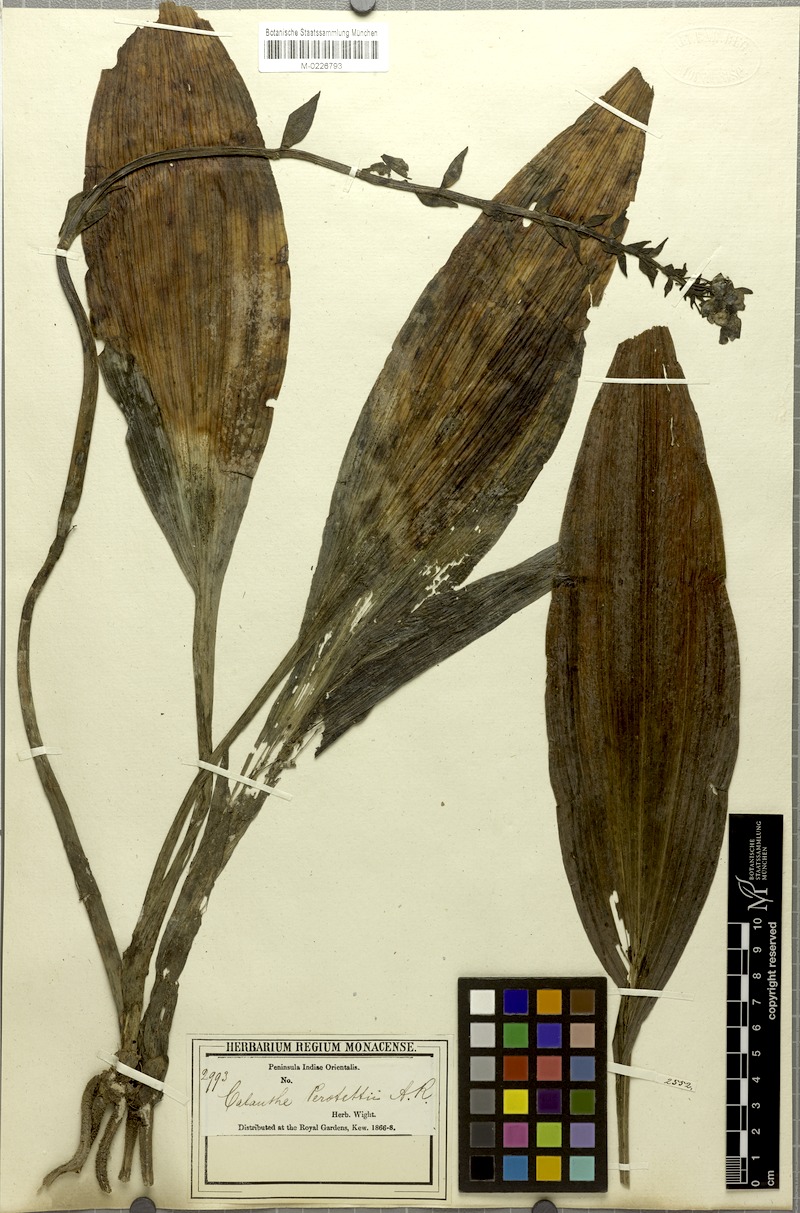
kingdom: Plantae
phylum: Tracheophyta
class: Liliopsida
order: Asparagales
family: Orchidaceae
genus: Calanthe
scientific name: Calanthe triplicata
